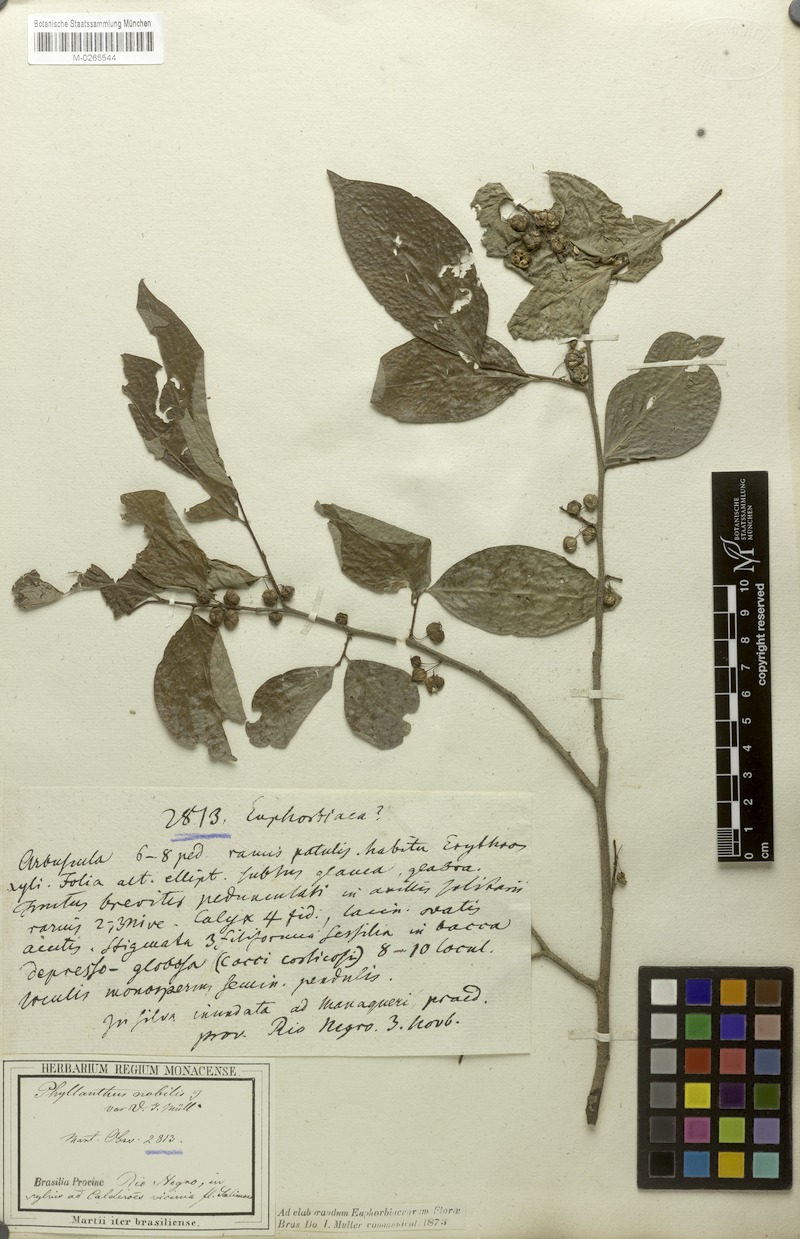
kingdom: Plantae
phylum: Tracheophyta
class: Magnoliopsida
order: Malpighiales
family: Phyllanthaceae
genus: Margaritaria
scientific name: Margaritaria nobilis
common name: Goose berry
